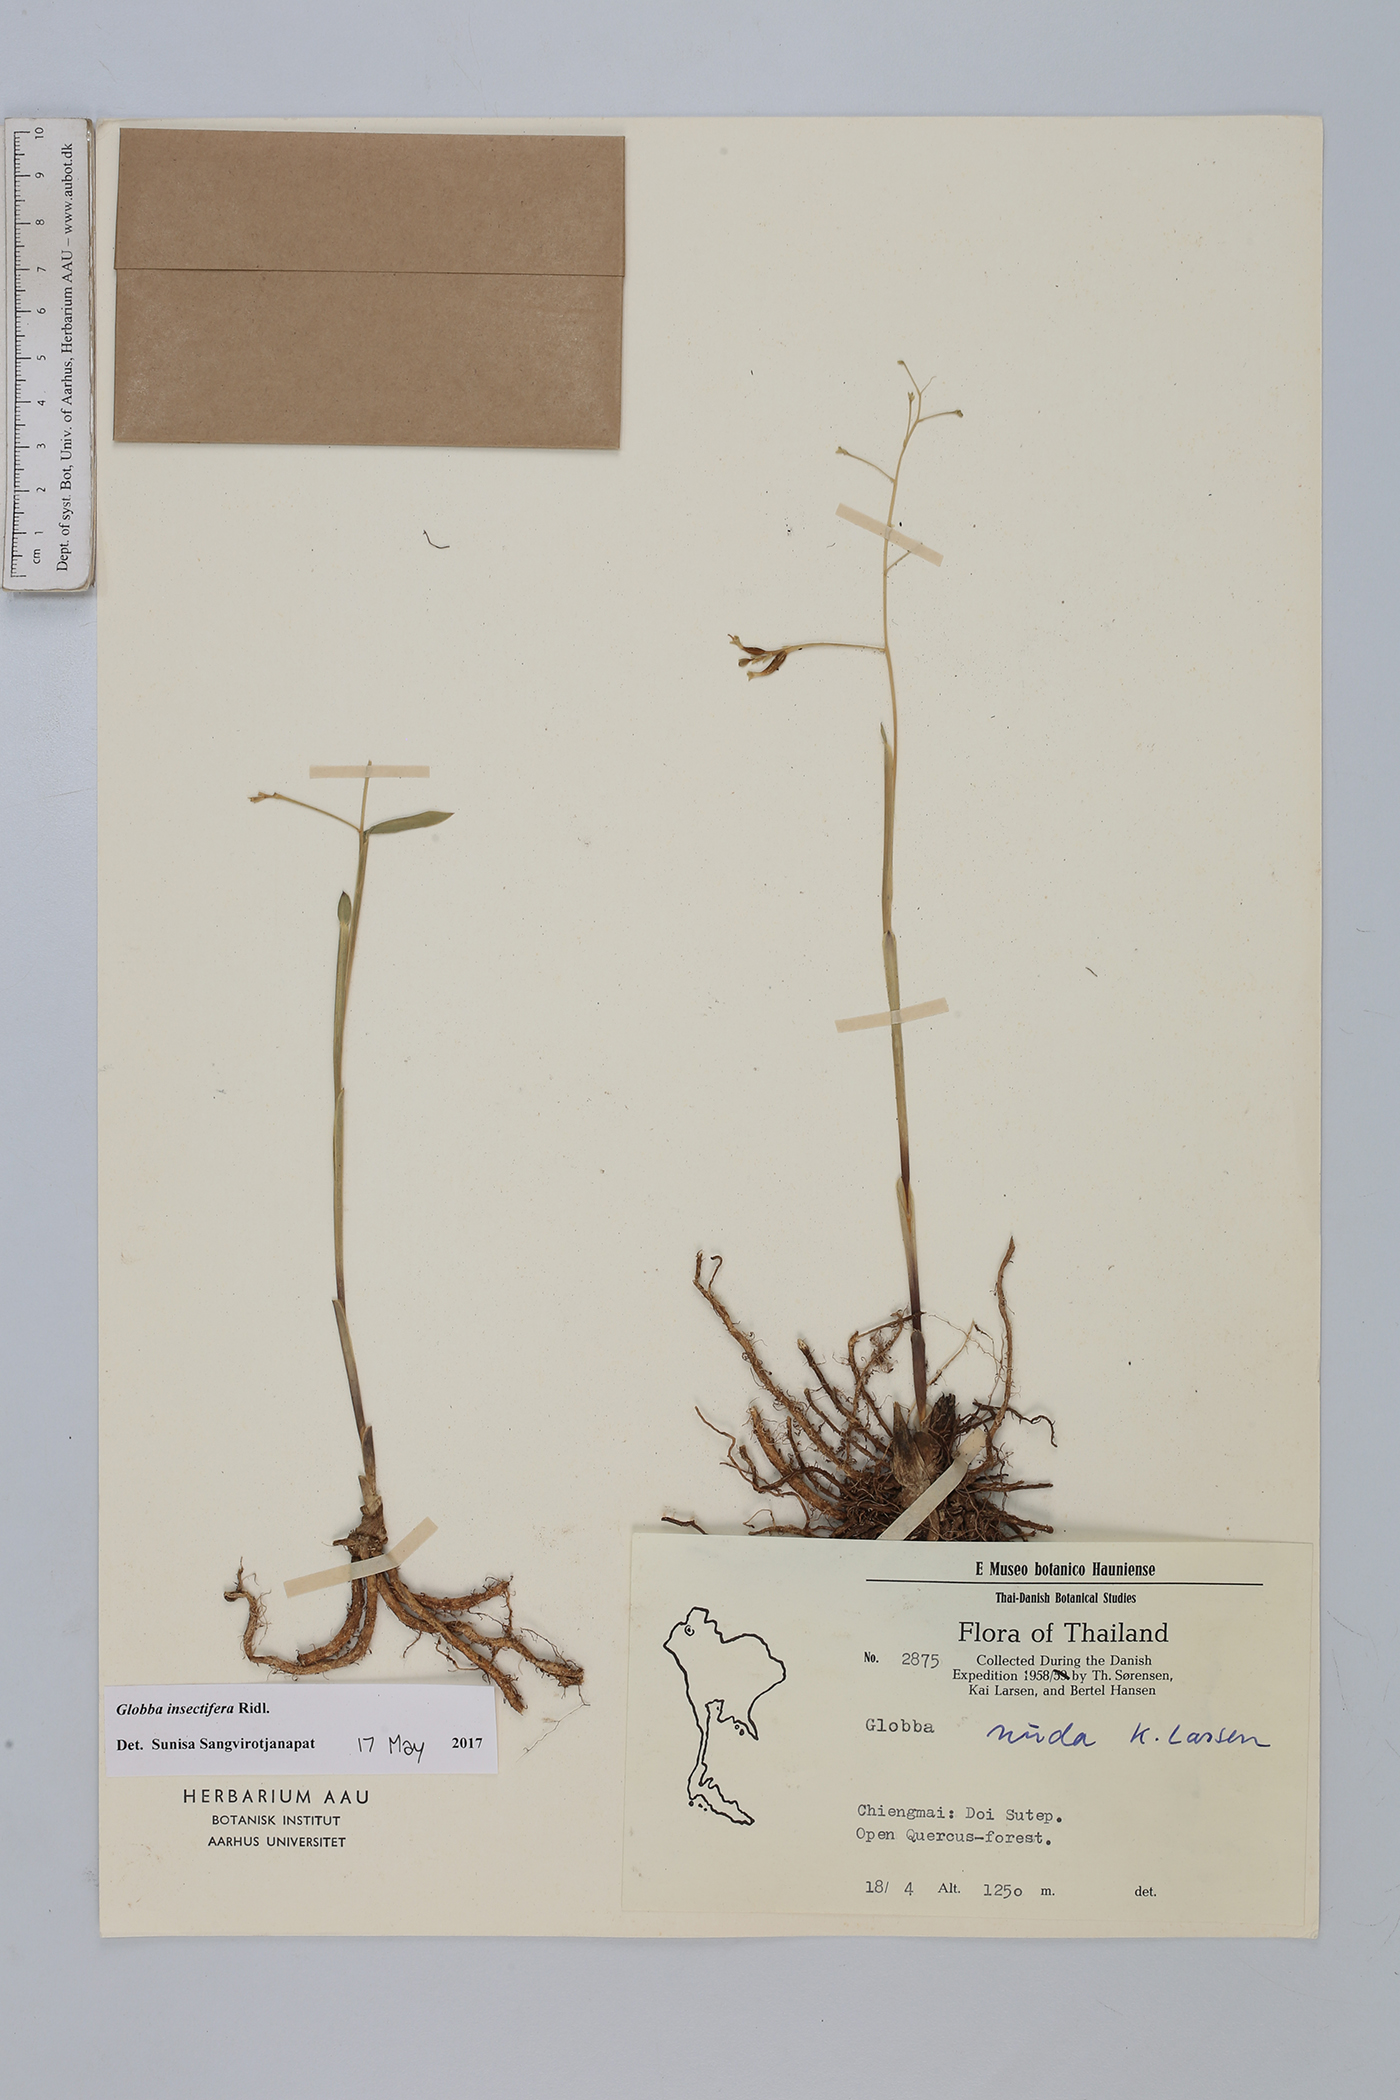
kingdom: Plantae
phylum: Tracheophyta
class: Liliopsida
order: Zingiberales
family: Zingiberaceae
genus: Globba
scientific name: Globba insectifera
